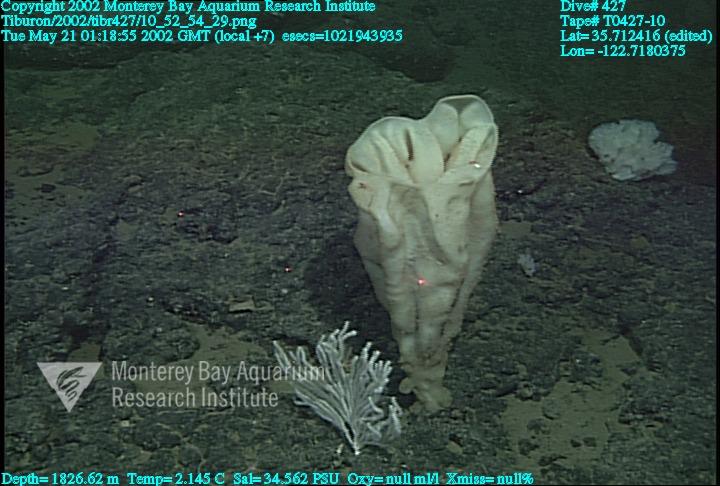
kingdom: Animalia
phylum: Porifera
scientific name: Porifera
